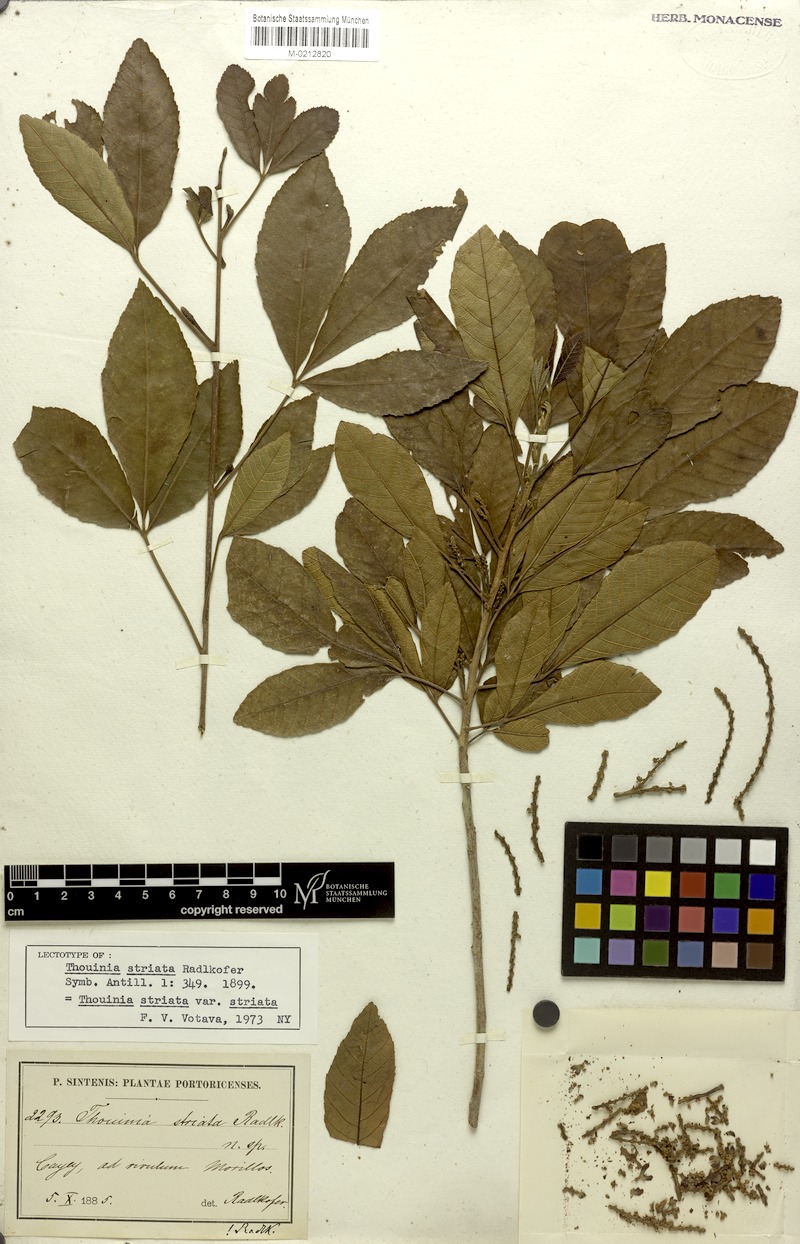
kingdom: Plantae
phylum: Tracheophyta
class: Magnoliopsida
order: Sapindales
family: Sapindaceae
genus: Thouinia
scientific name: Thouinia striata
